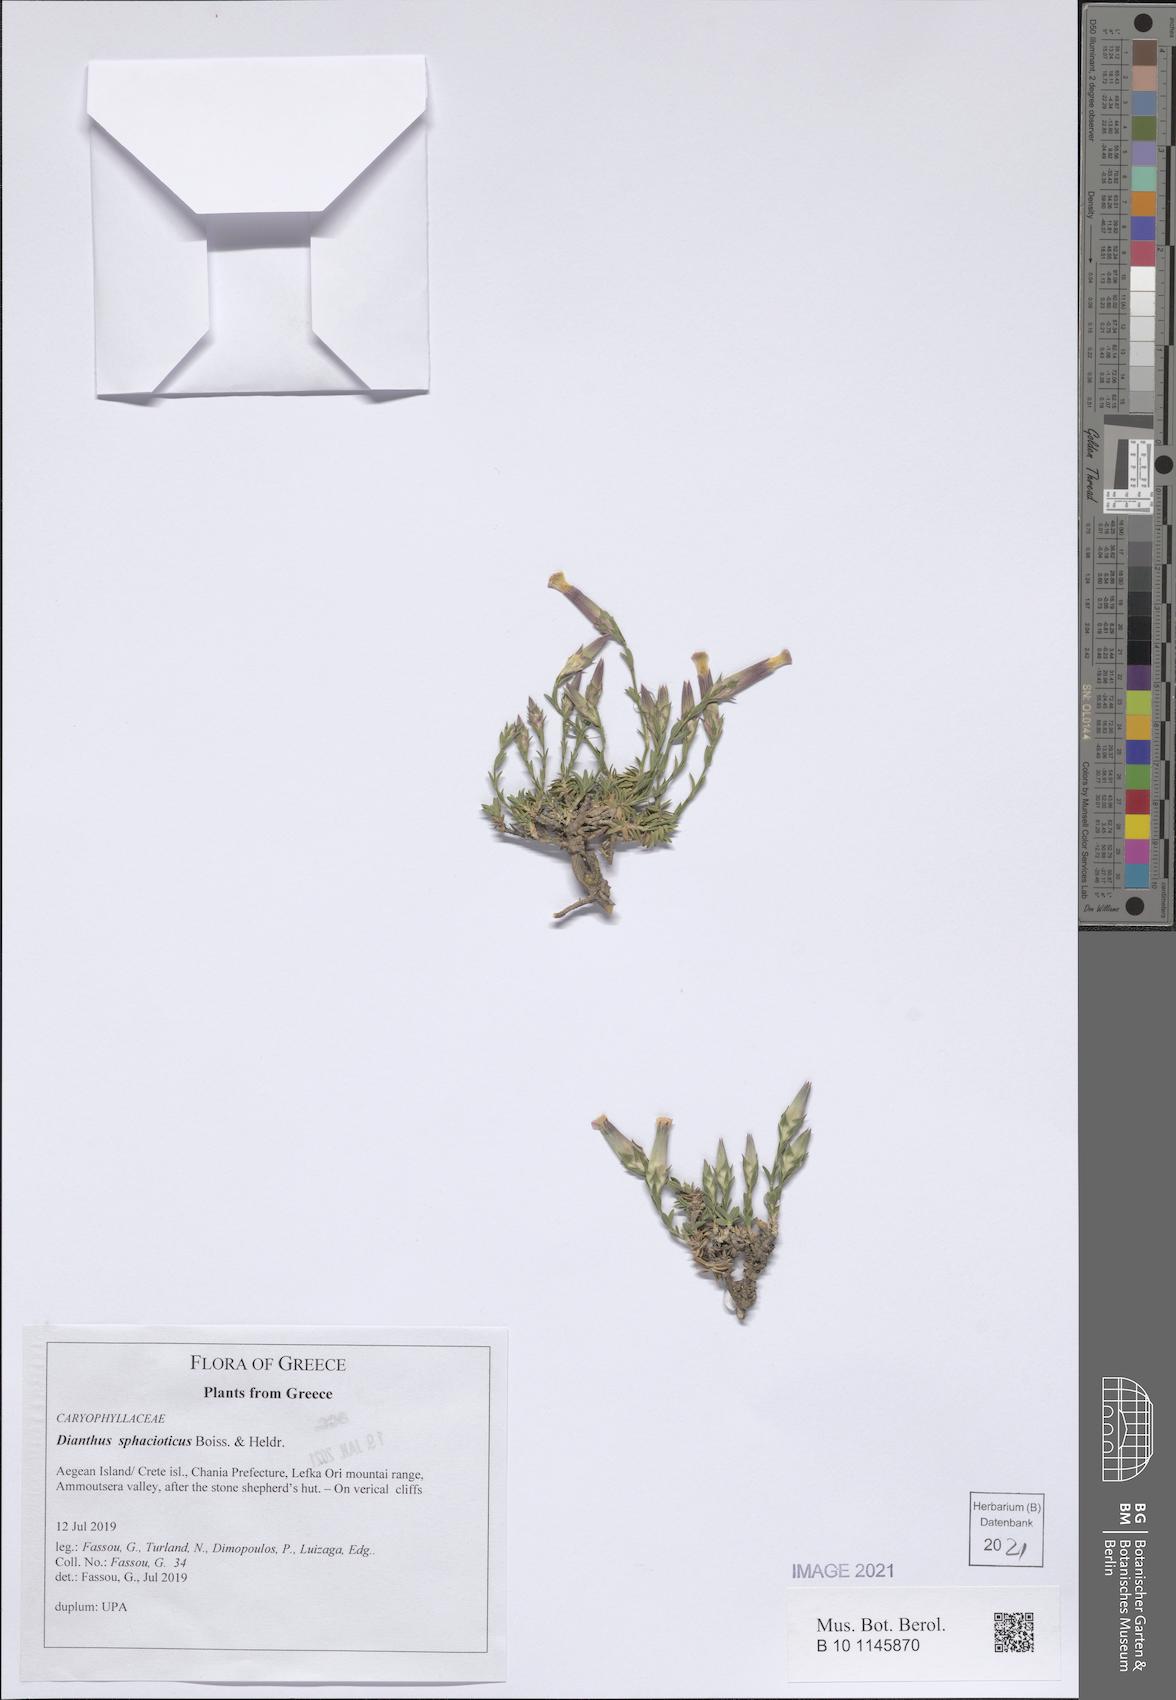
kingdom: Plantae
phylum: Tracheophyta
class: Magnoliopsida
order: Caryophyllales
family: Caryophyllaceae
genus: Dianthus
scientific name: Dianthus sphacioticus
